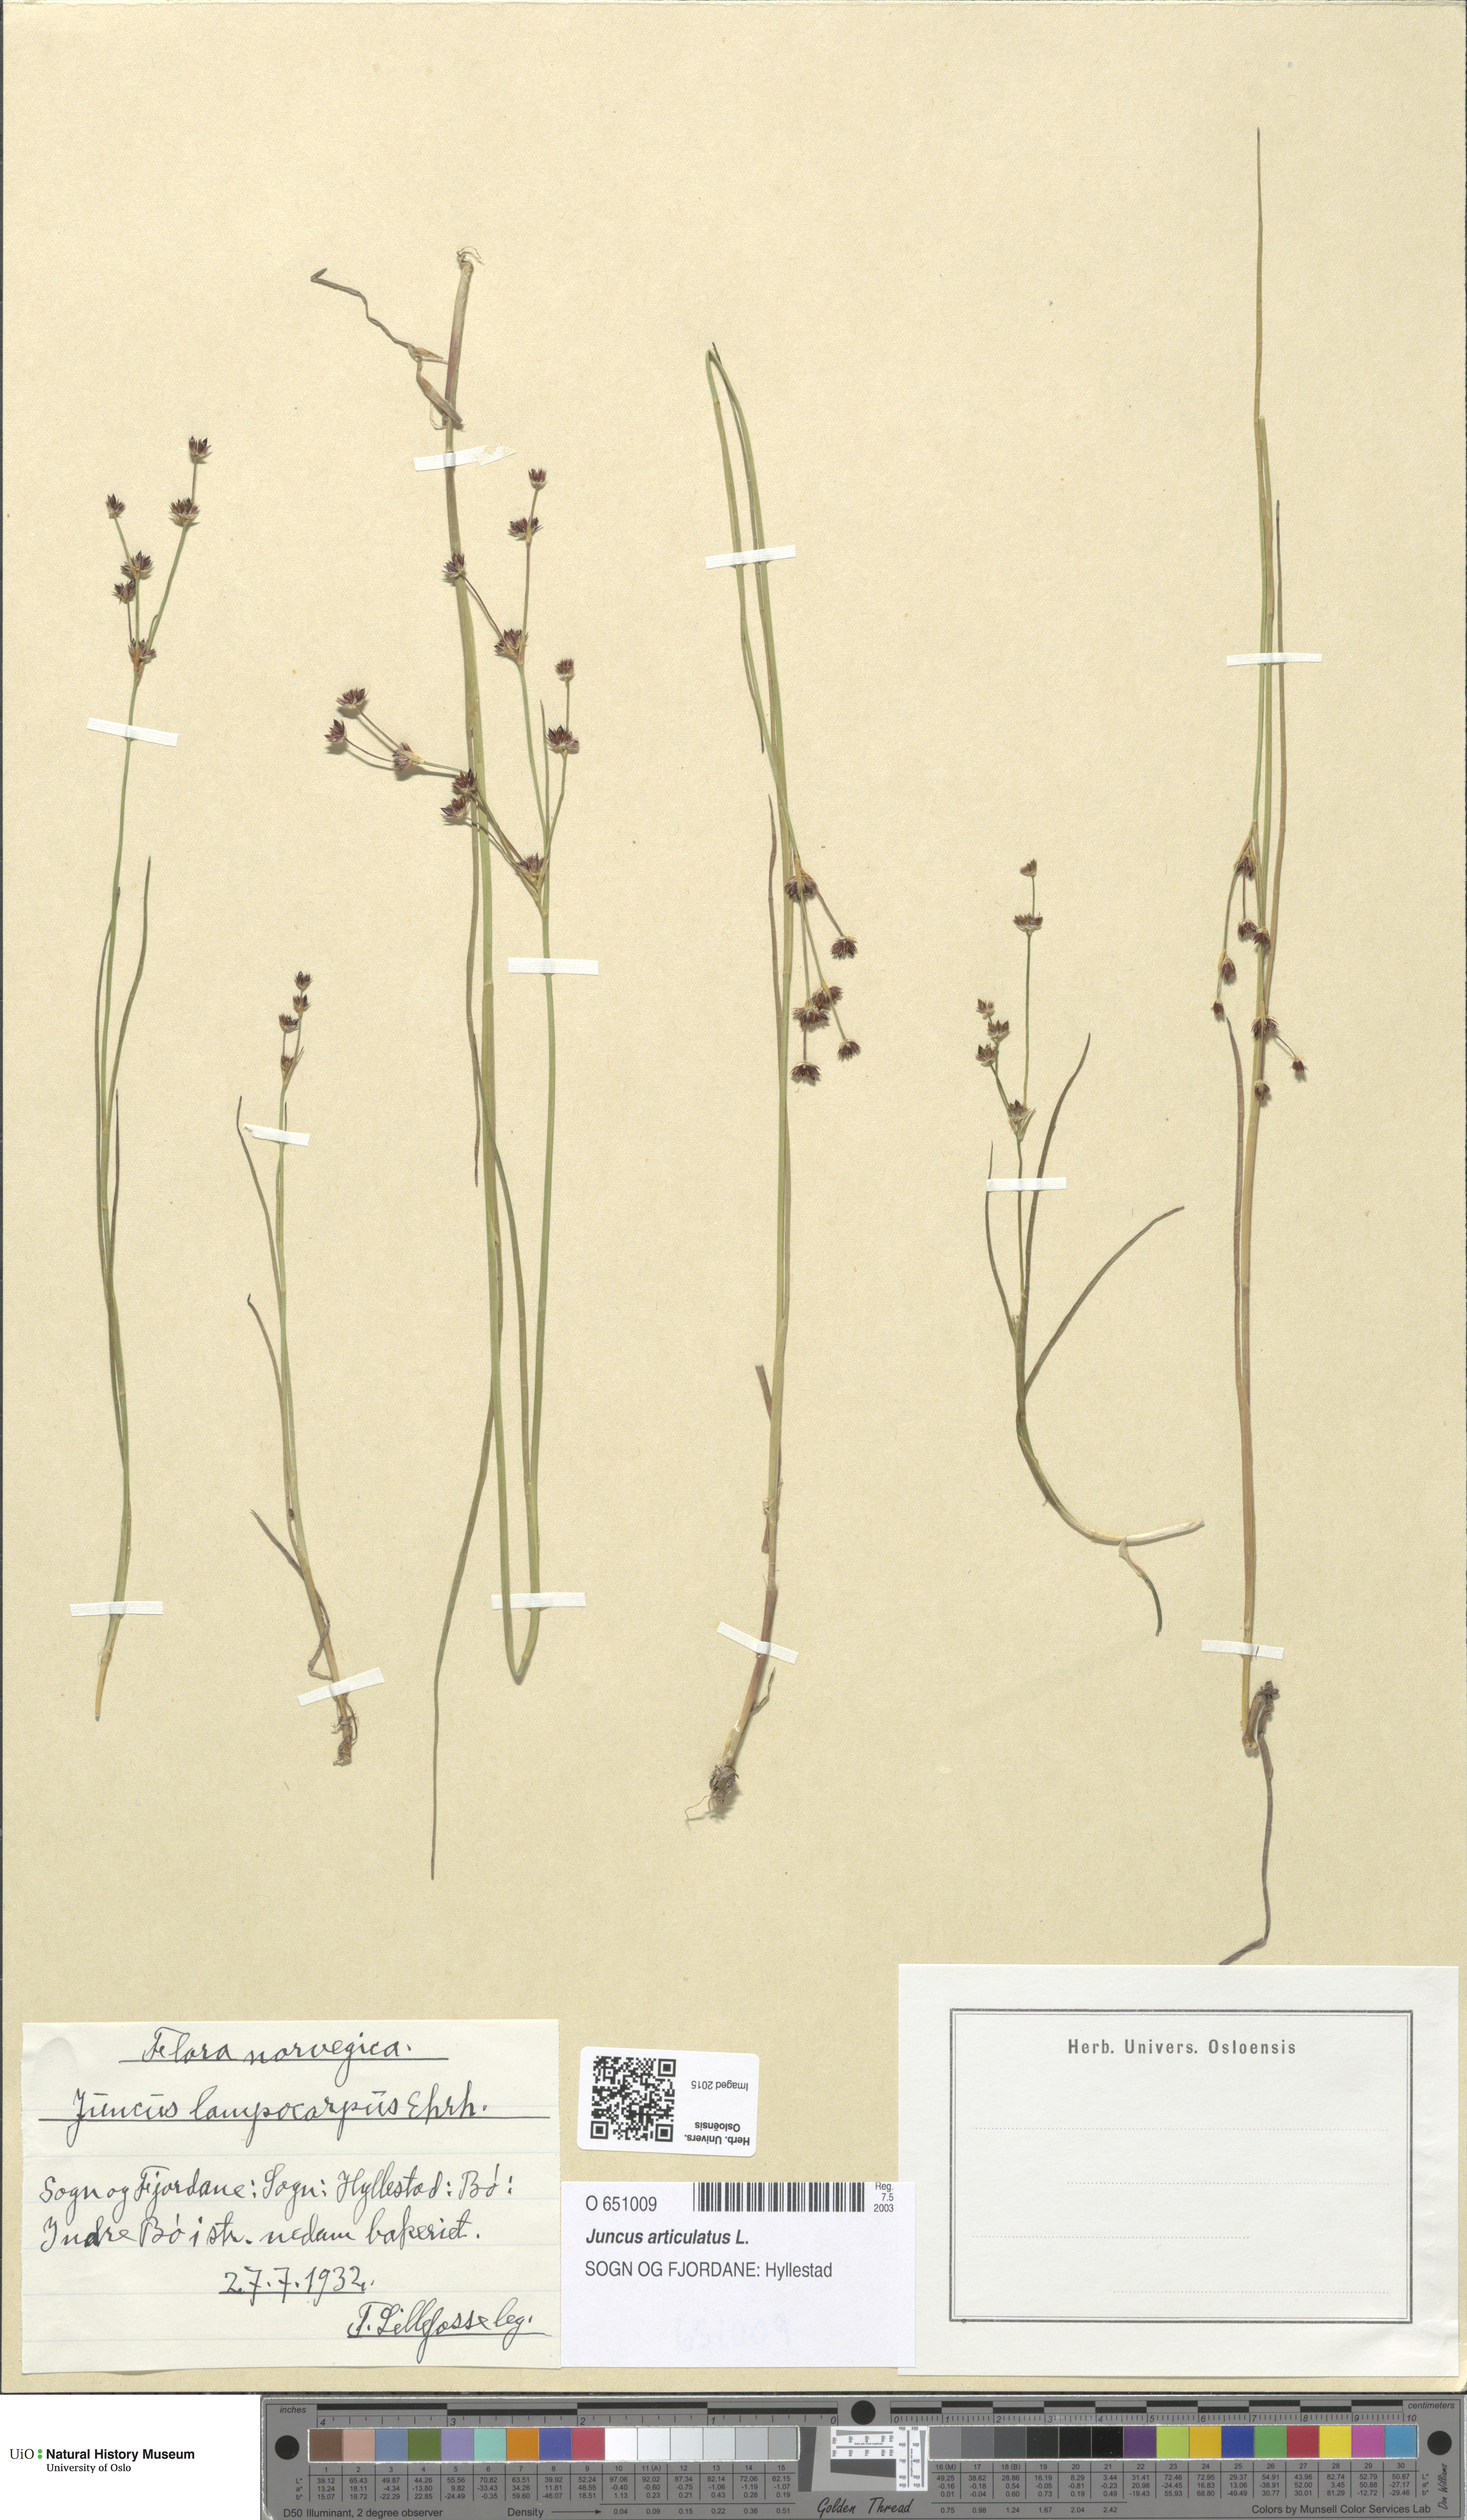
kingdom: Plantae
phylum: Tracheophyta
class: Liliopsida
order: Poales
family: Juncaceae
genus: Juncus
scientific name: Juncus articulatus
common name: Jointed rush
